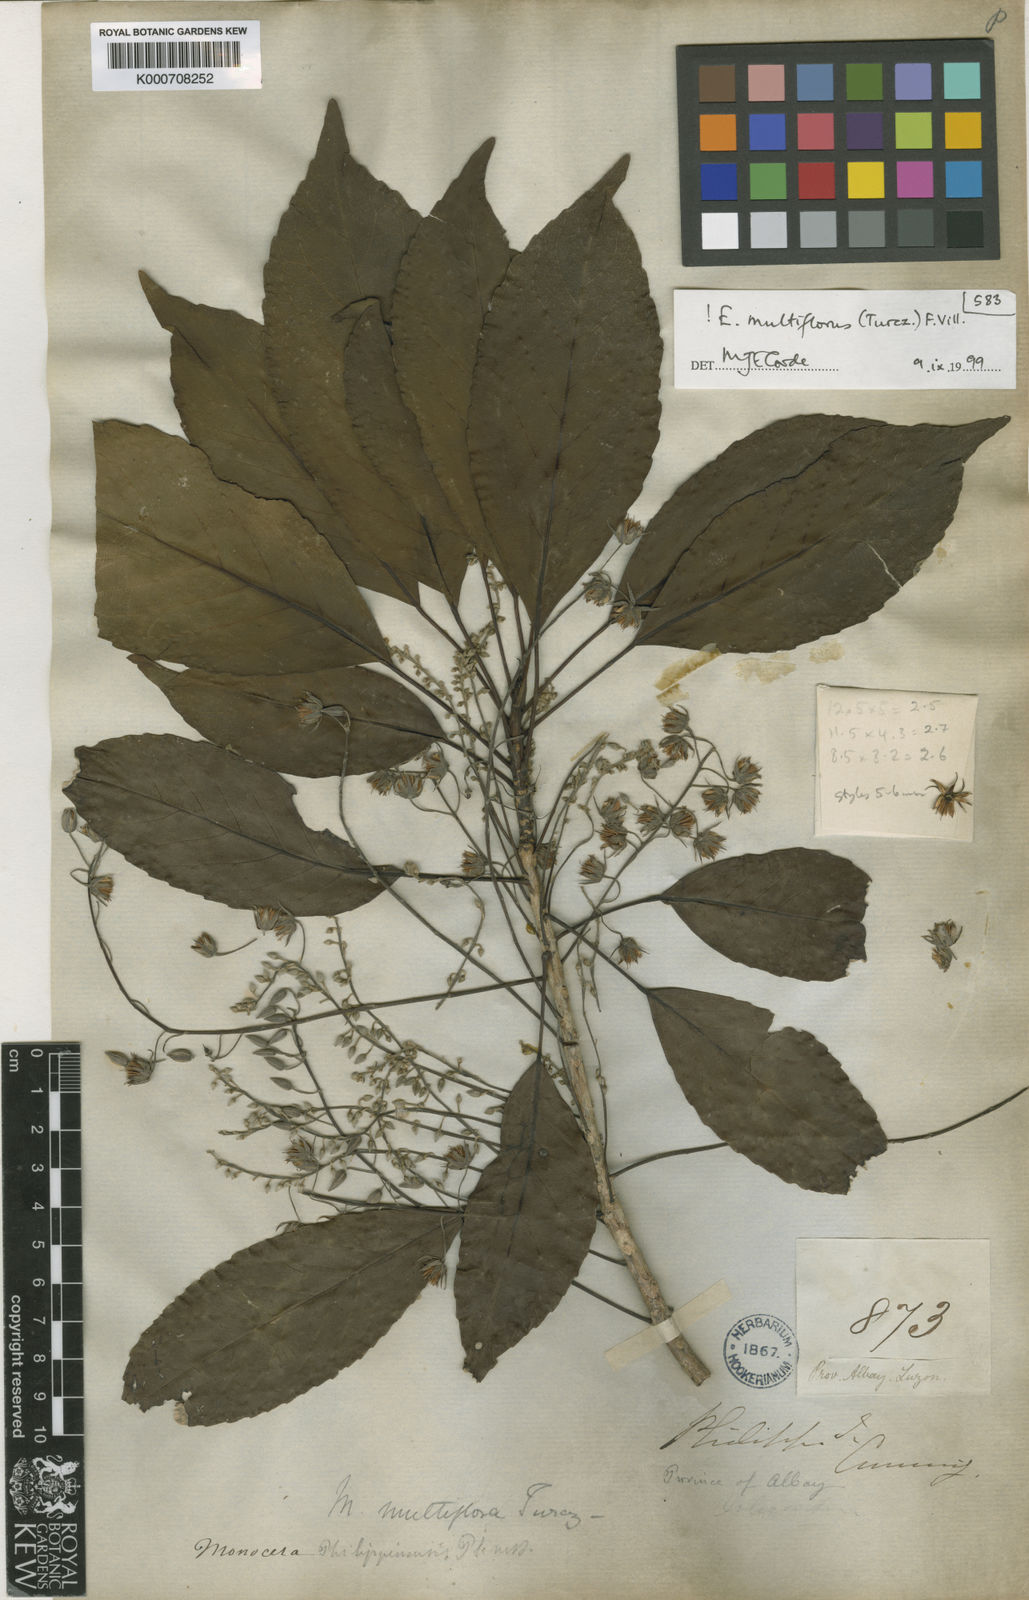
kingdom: Plantae
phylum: Tracheophyta
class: Magnoliopsida
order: Oxalidales
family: Elaeocarpaceae
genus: Elaeocarpus
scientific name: Elaeocarpus multiflorus
